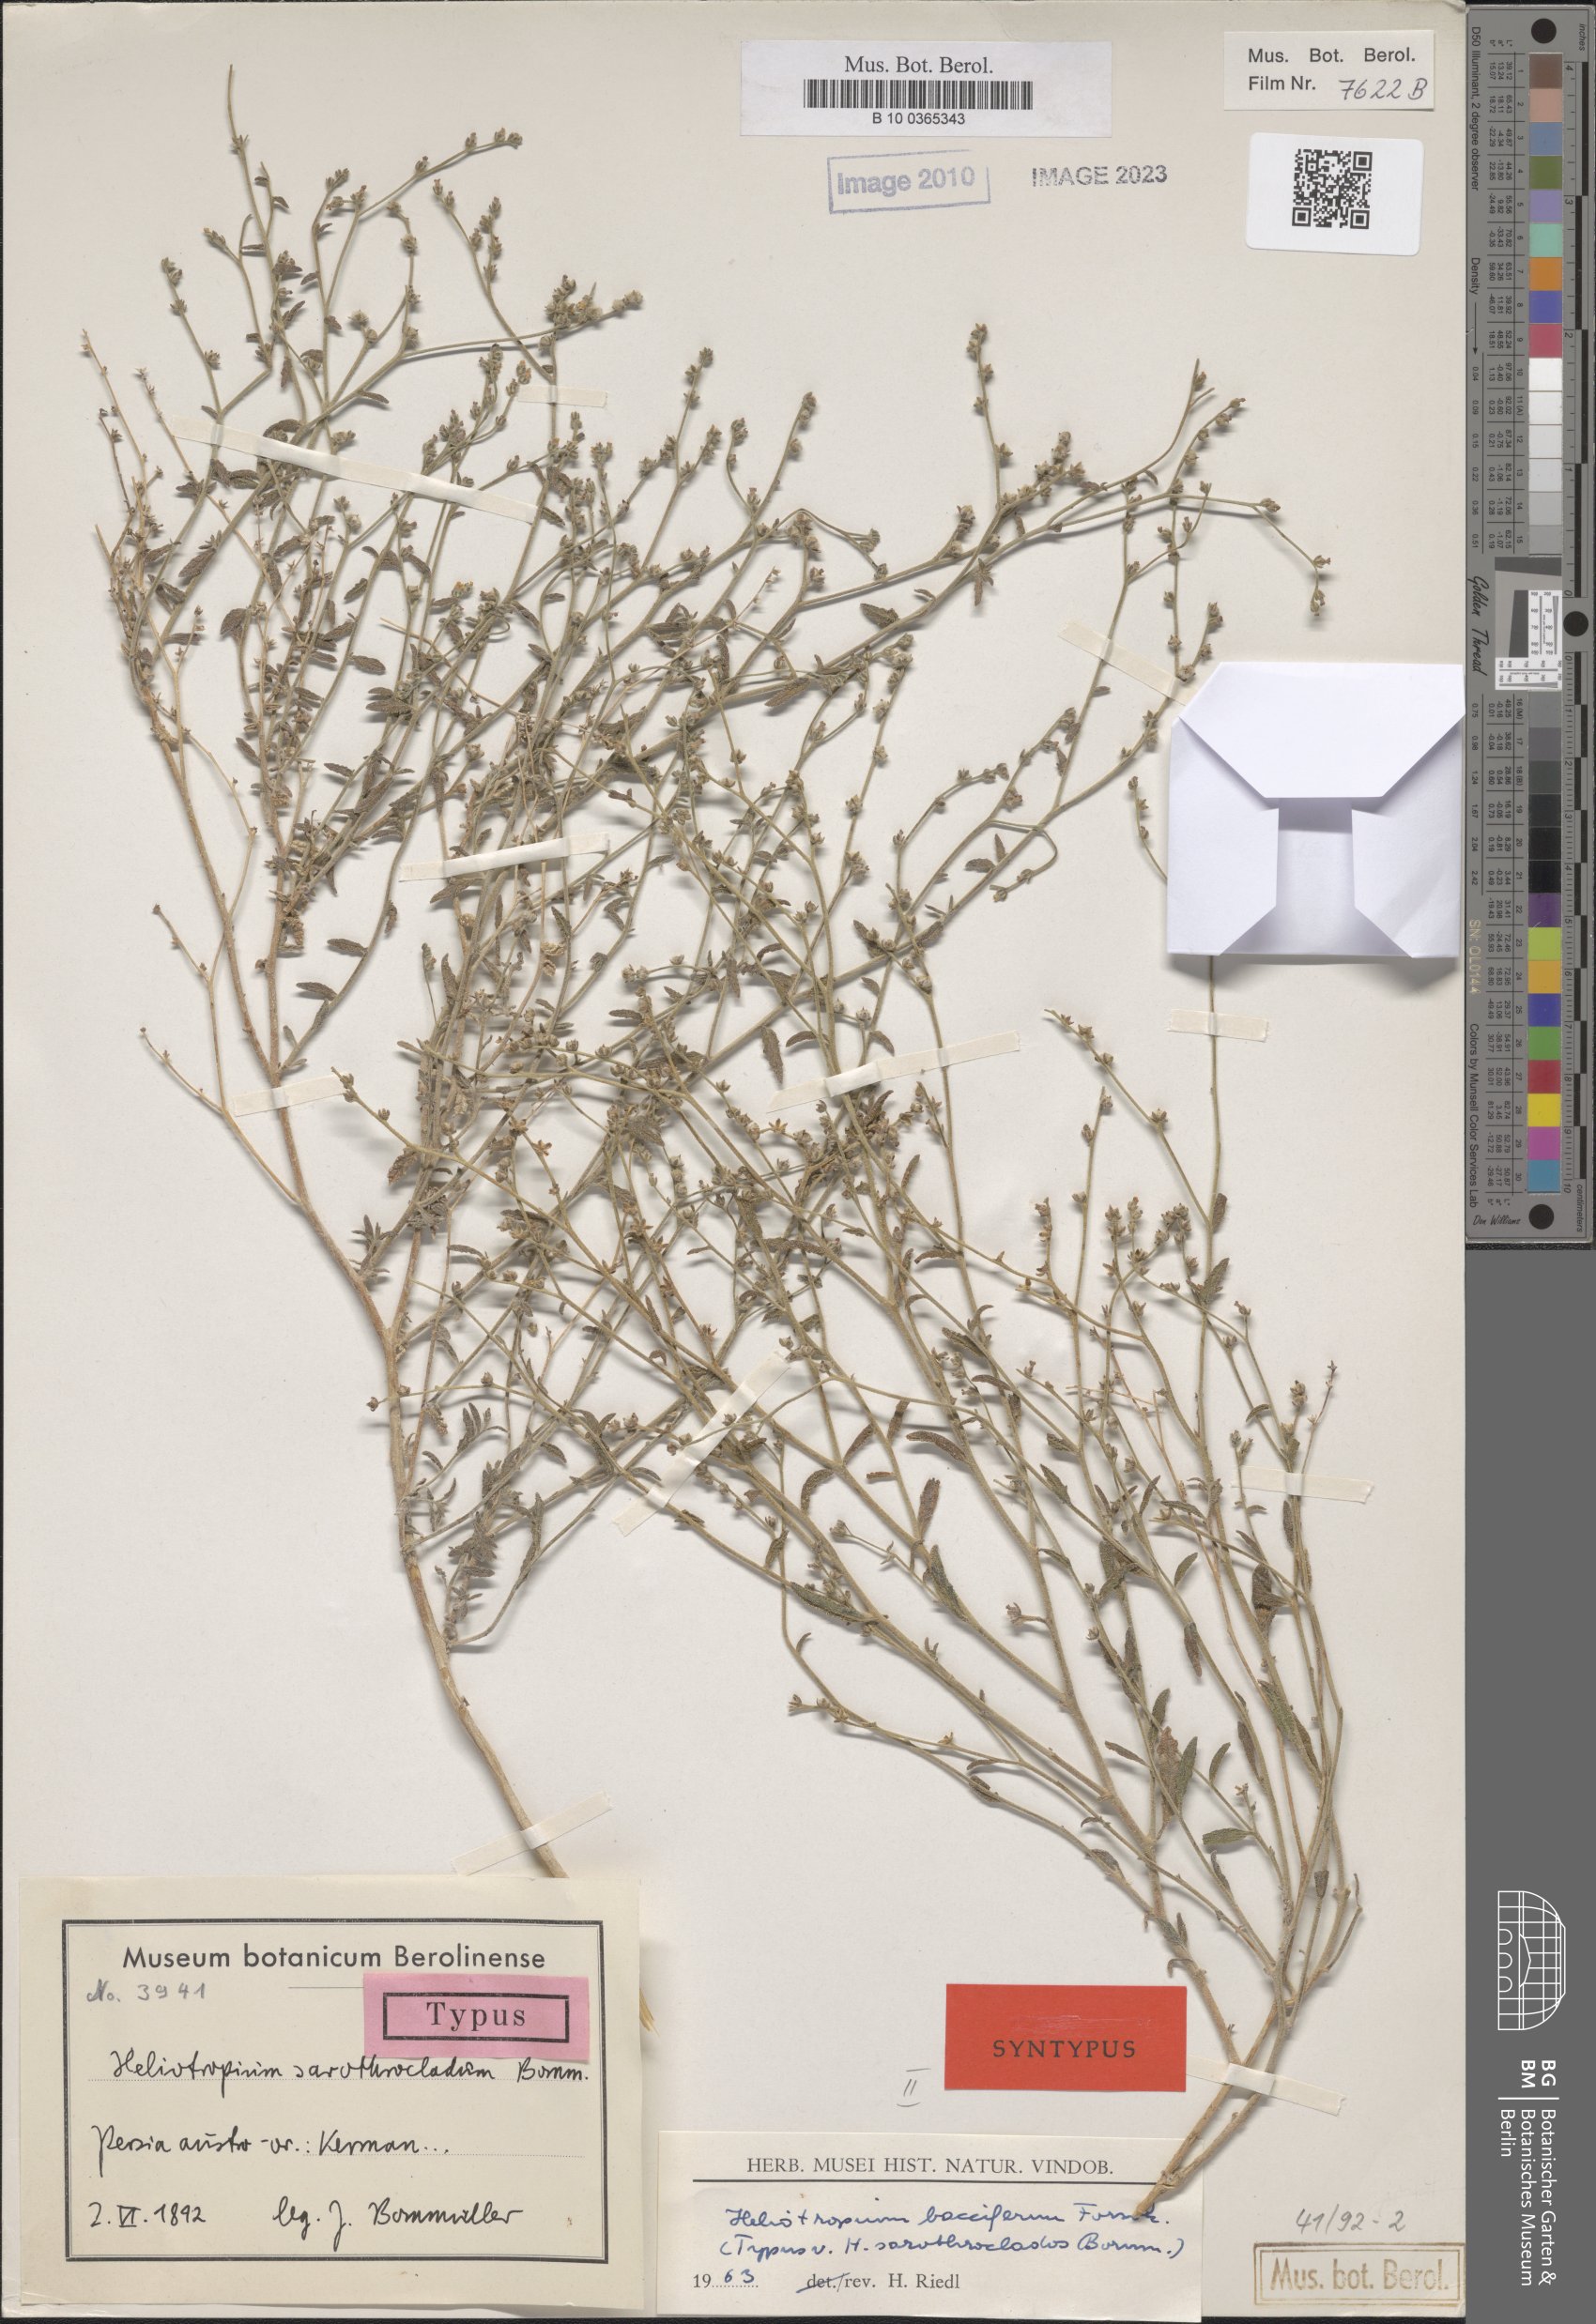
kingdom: Plantae
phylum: Tracheophyta
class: Magnoliopsida
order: Boraginales
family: Heliotropiaceae
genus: Heliotropium
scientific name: Heliotropium bacciferum
